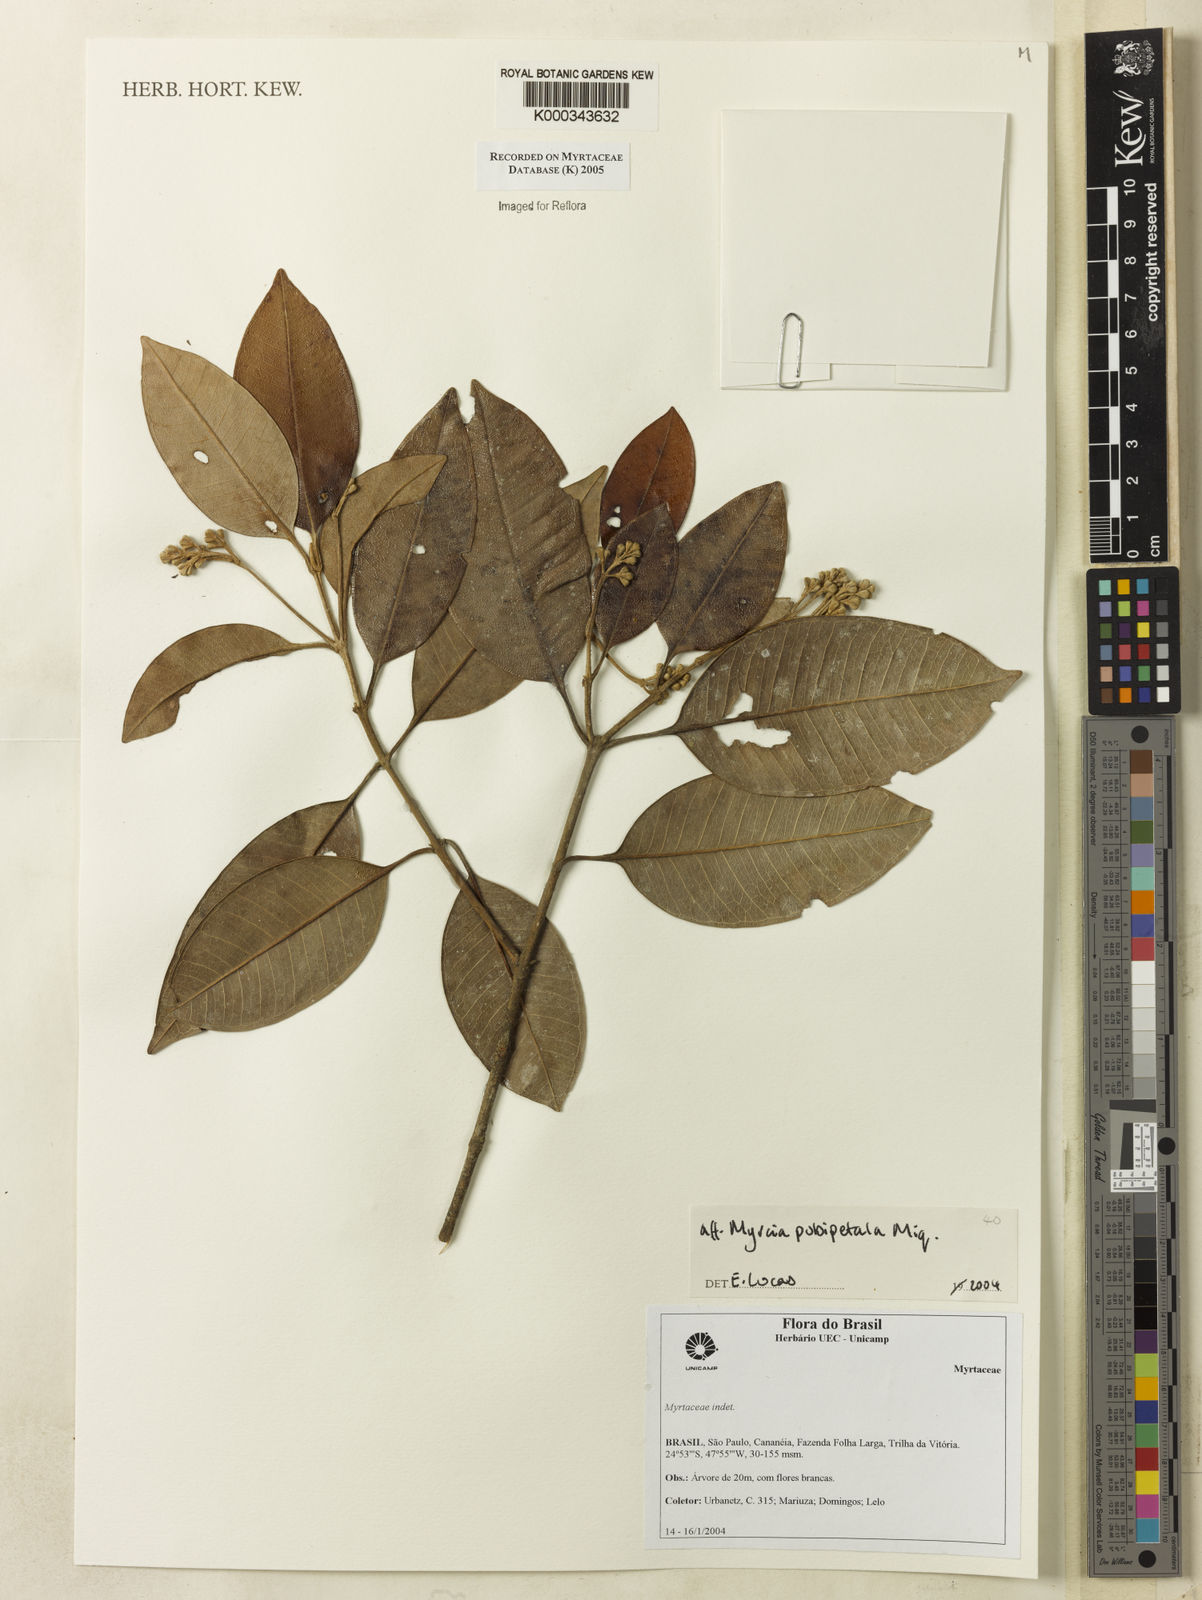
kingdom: Plantae
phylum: Tracheophyta
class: Magnoliopsida
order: Myrtales
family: Myrtaceae
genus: Myrcia
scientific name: Myrcia pubipetala
